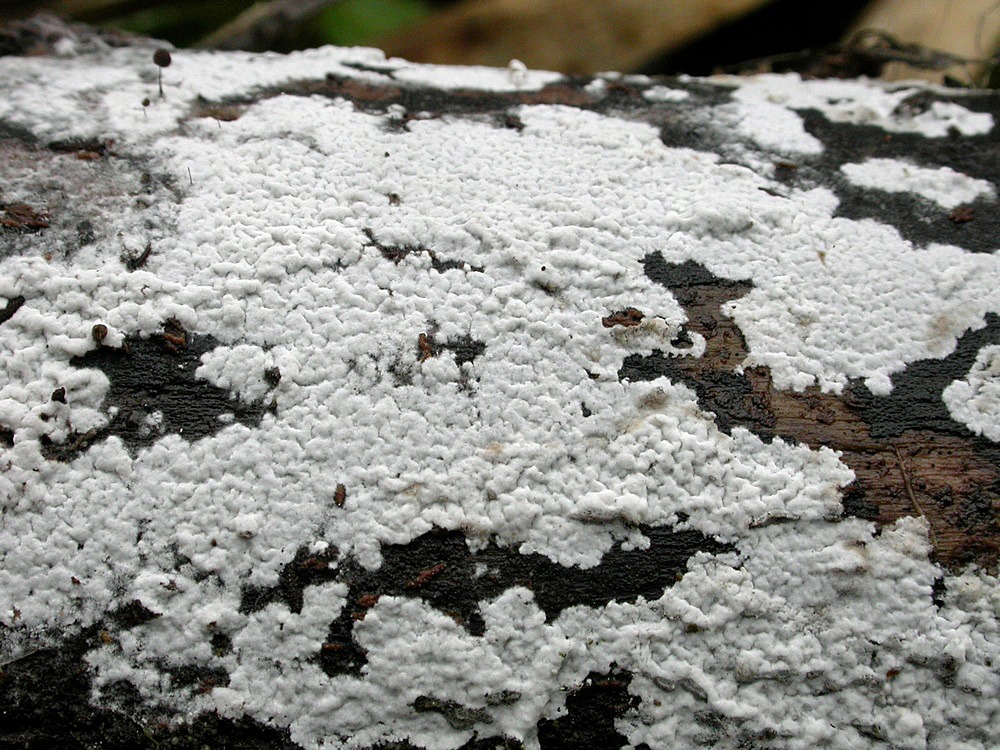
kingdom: Fungi
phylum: Basidiomycota
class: Agaricomycetes
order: Atheliales
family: Atheliaceae
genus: Athelia
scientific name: Athelia epiphylla
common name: almindelig barkhinde
